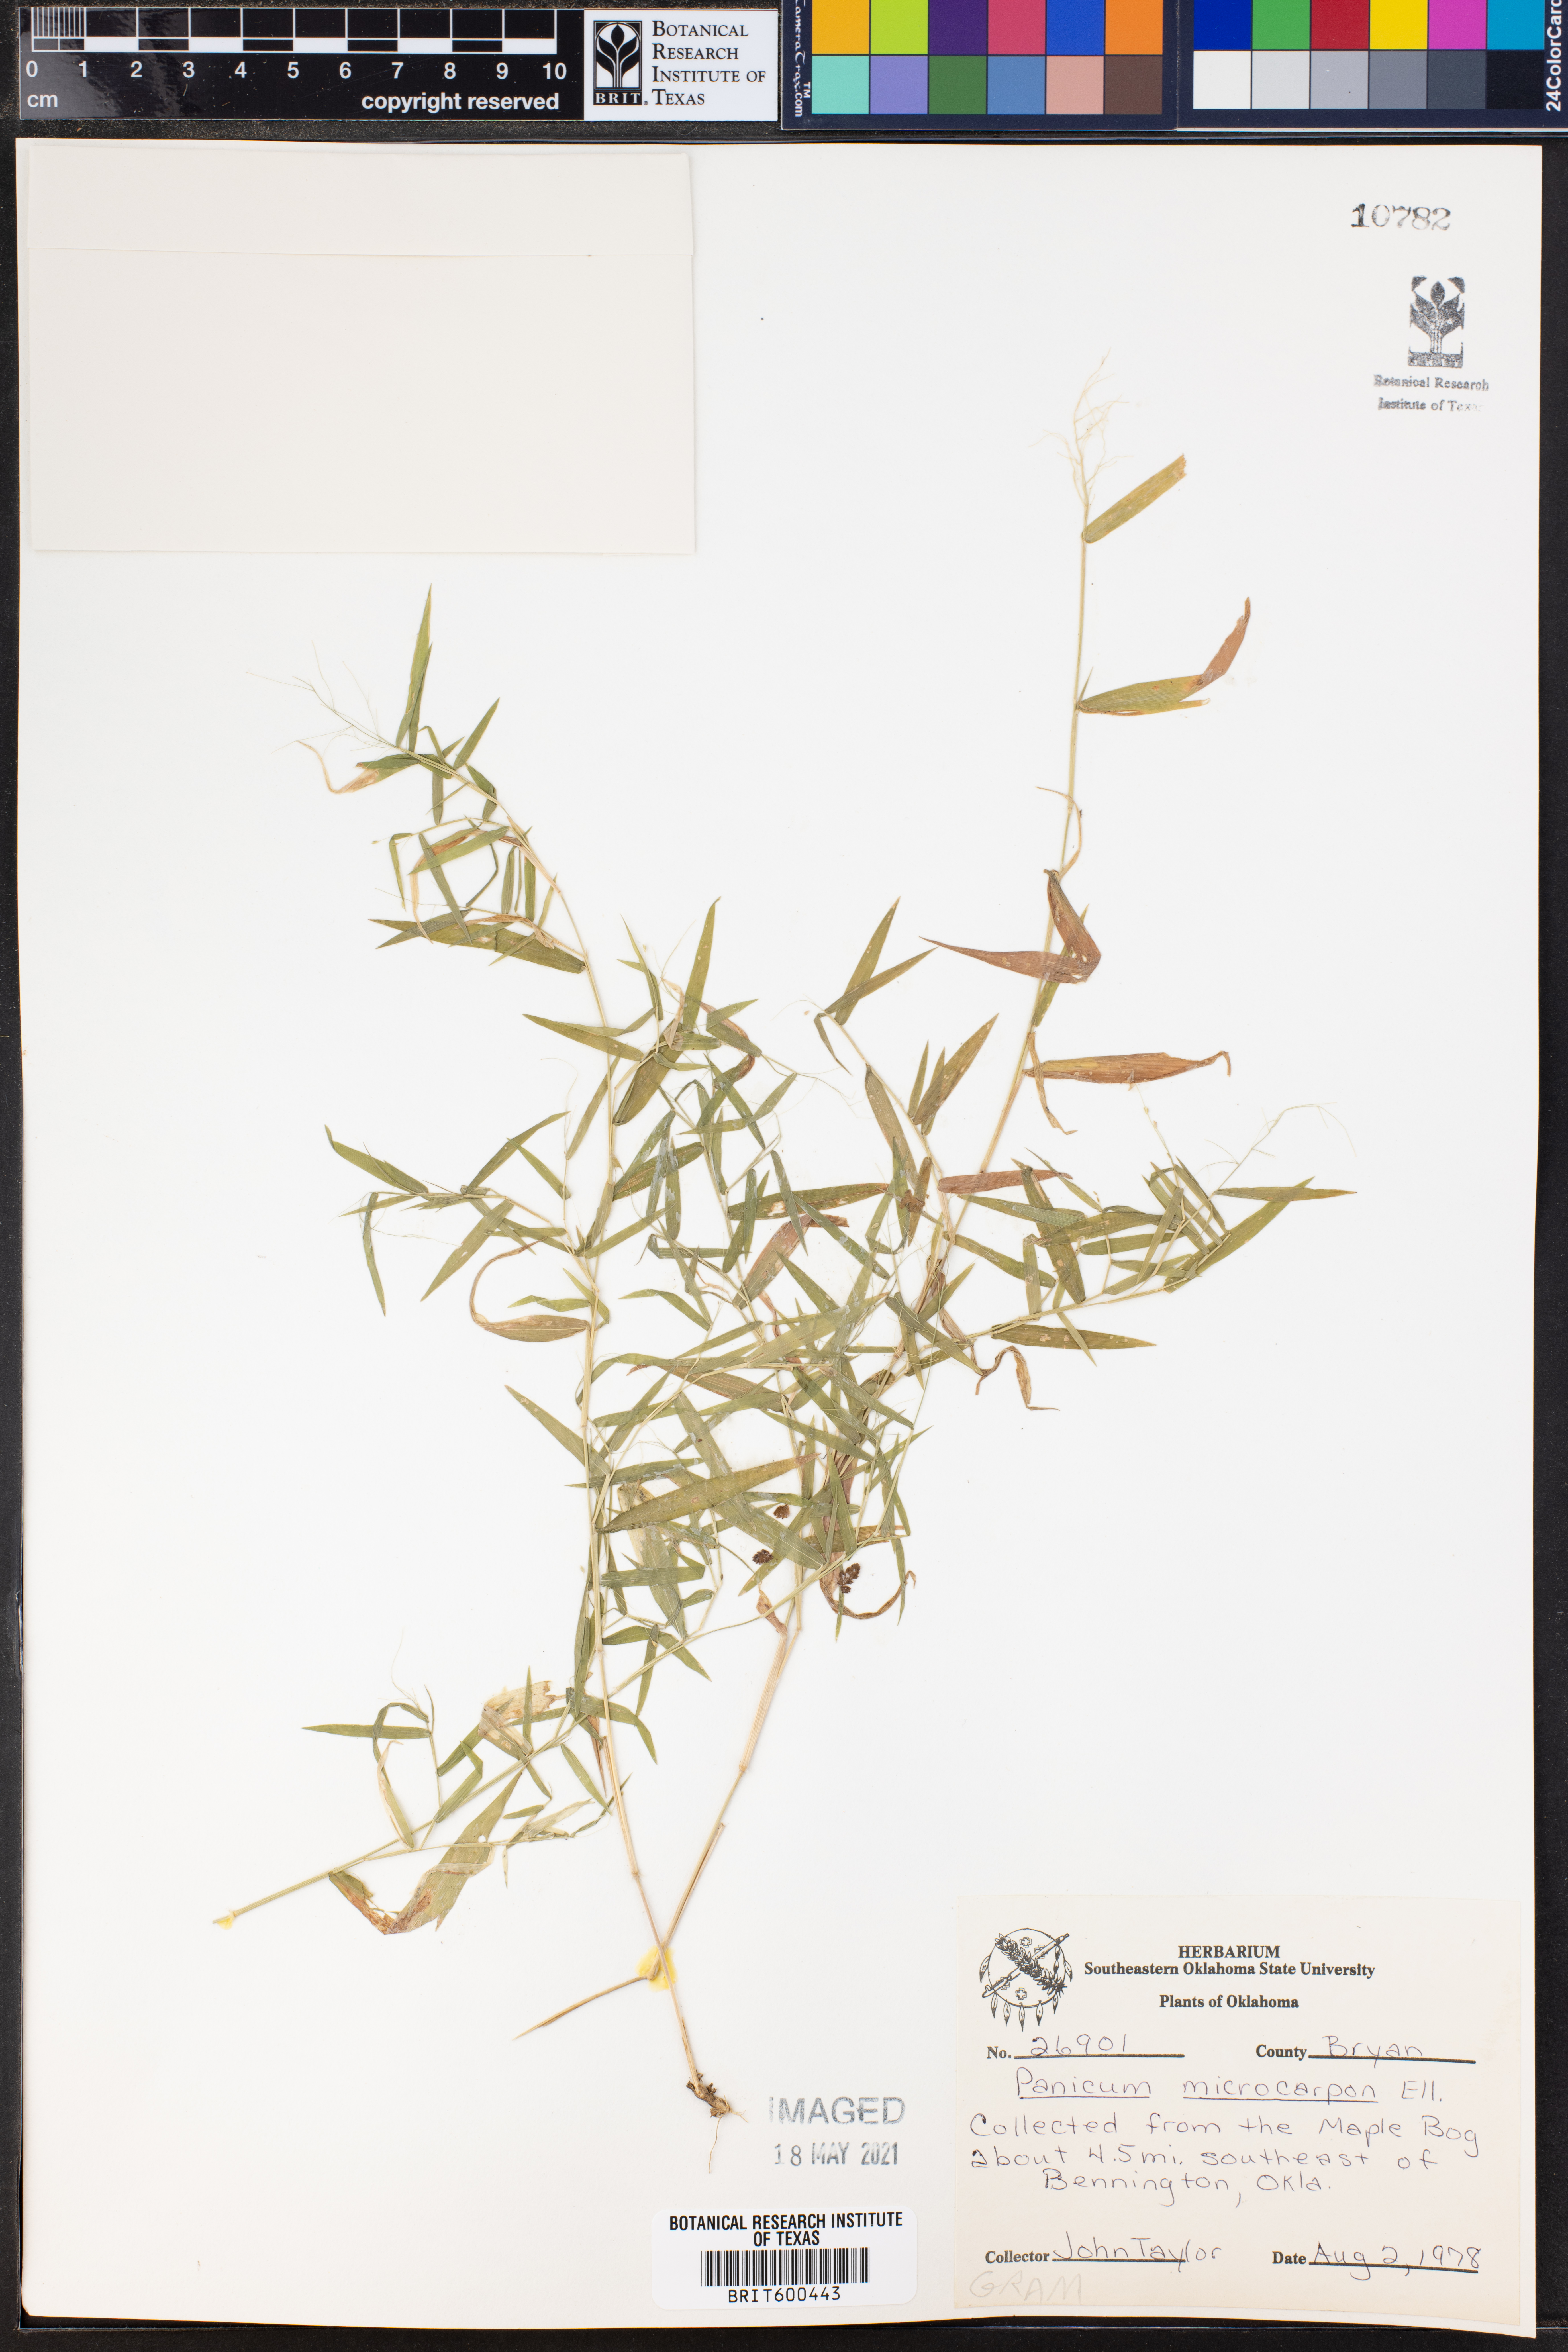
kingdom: Plantae
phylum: Tracheophyta
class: Liliopsida
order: Poales
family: Poaceae
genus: Dichanthelium
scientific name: Dichanthelium polyanthes
